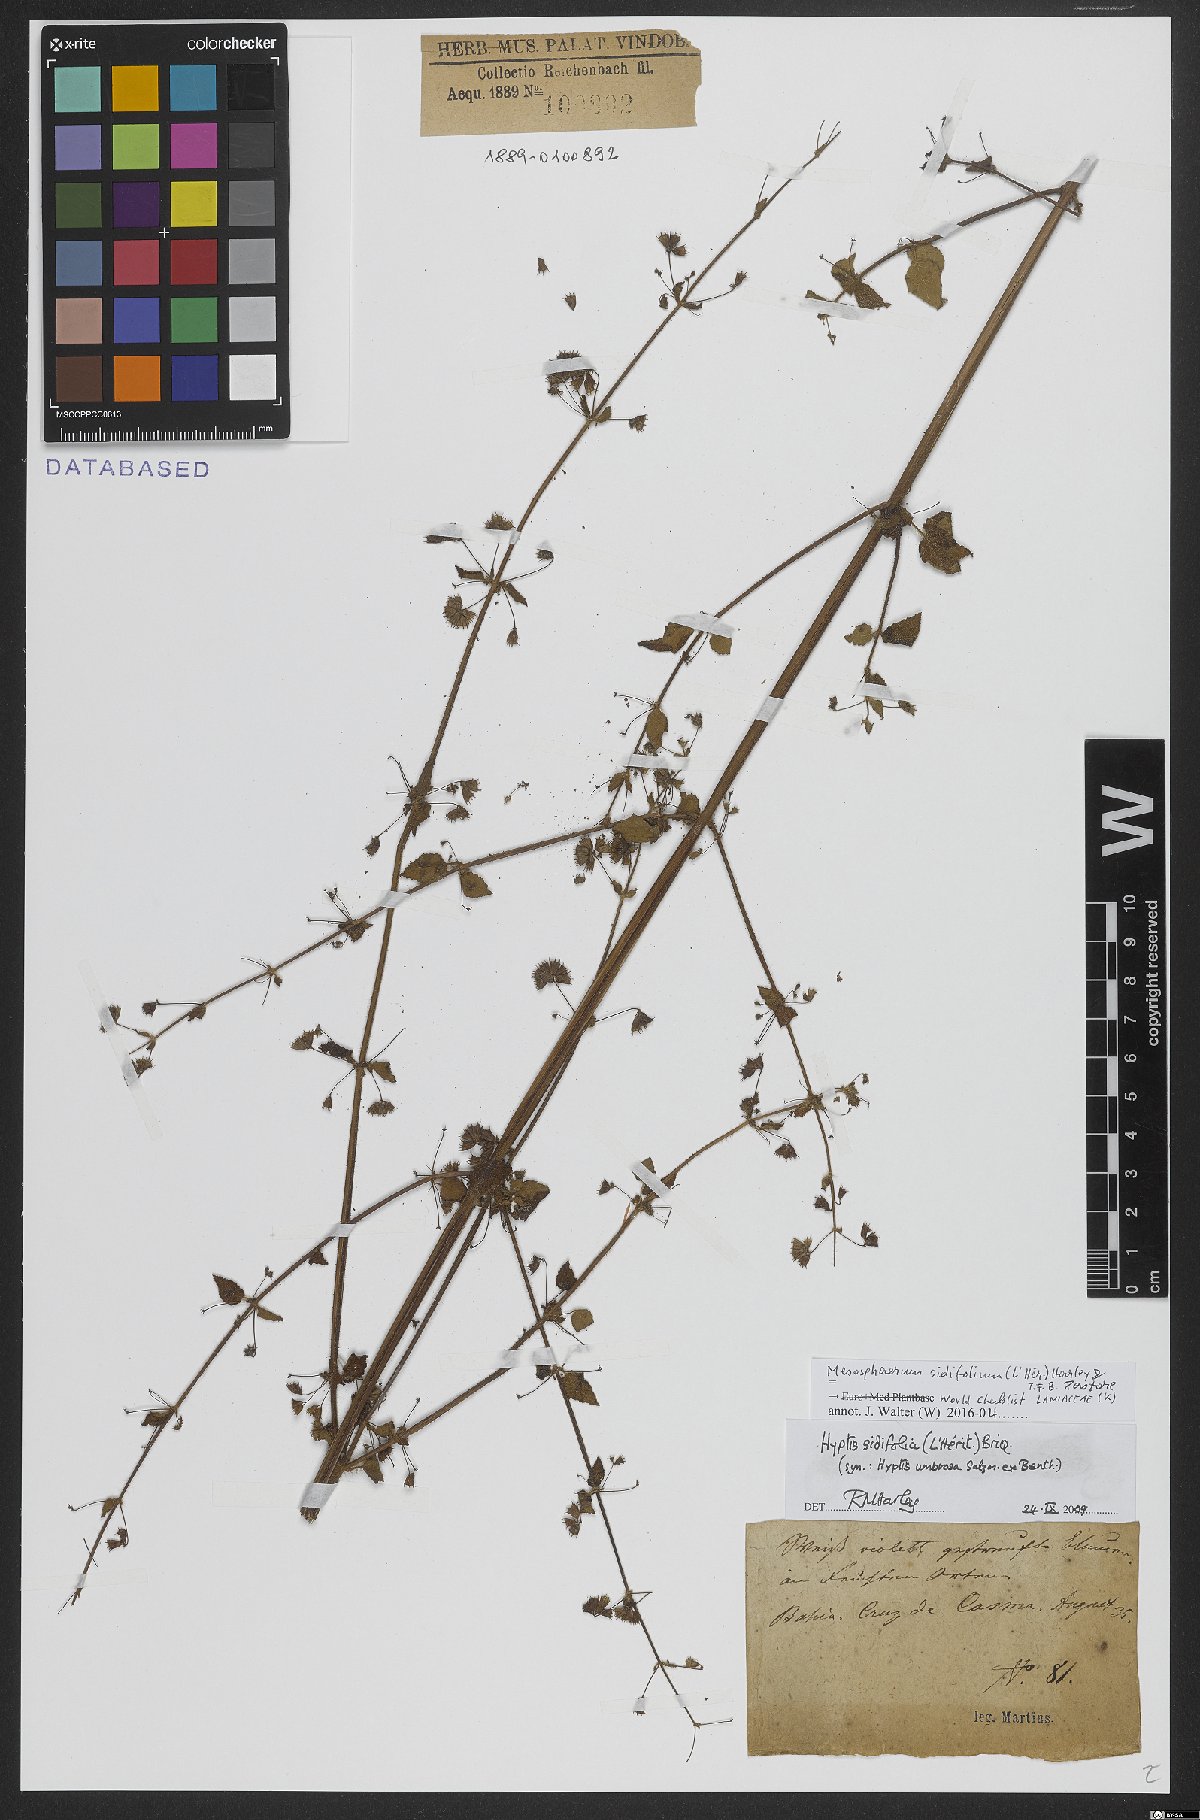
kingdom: Plantae
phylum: Tracheophyta
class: Magnoliopsida
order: Lamiales
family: Lamiaceae
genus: Mesosphaerum
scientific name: Mesosphaerum sidifolium
